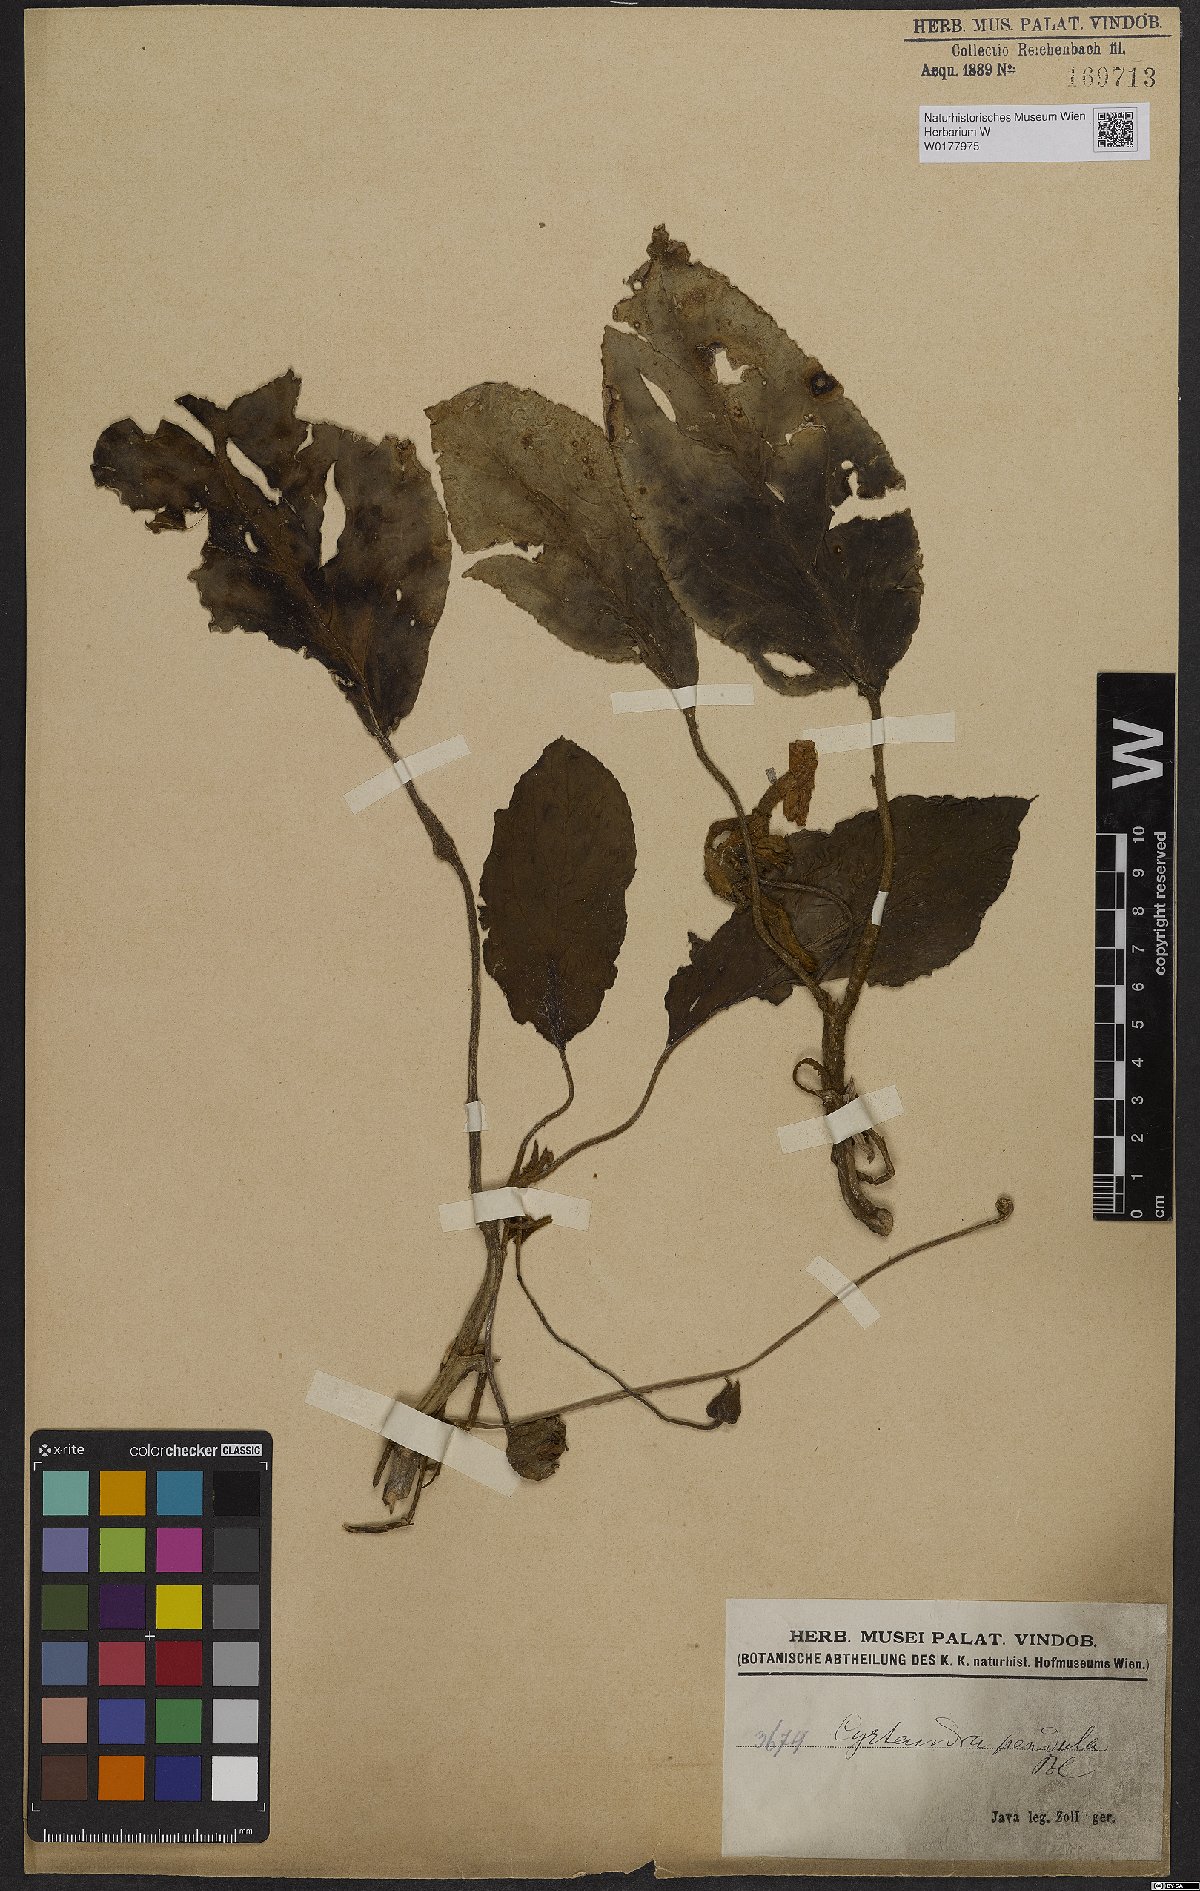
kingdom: Plantae
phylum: Tracheophyta
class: Magnoliopsida
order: Lamiales
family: Gesneriaceae
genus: Cyrtandra
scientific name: Cyrtandra pendula
